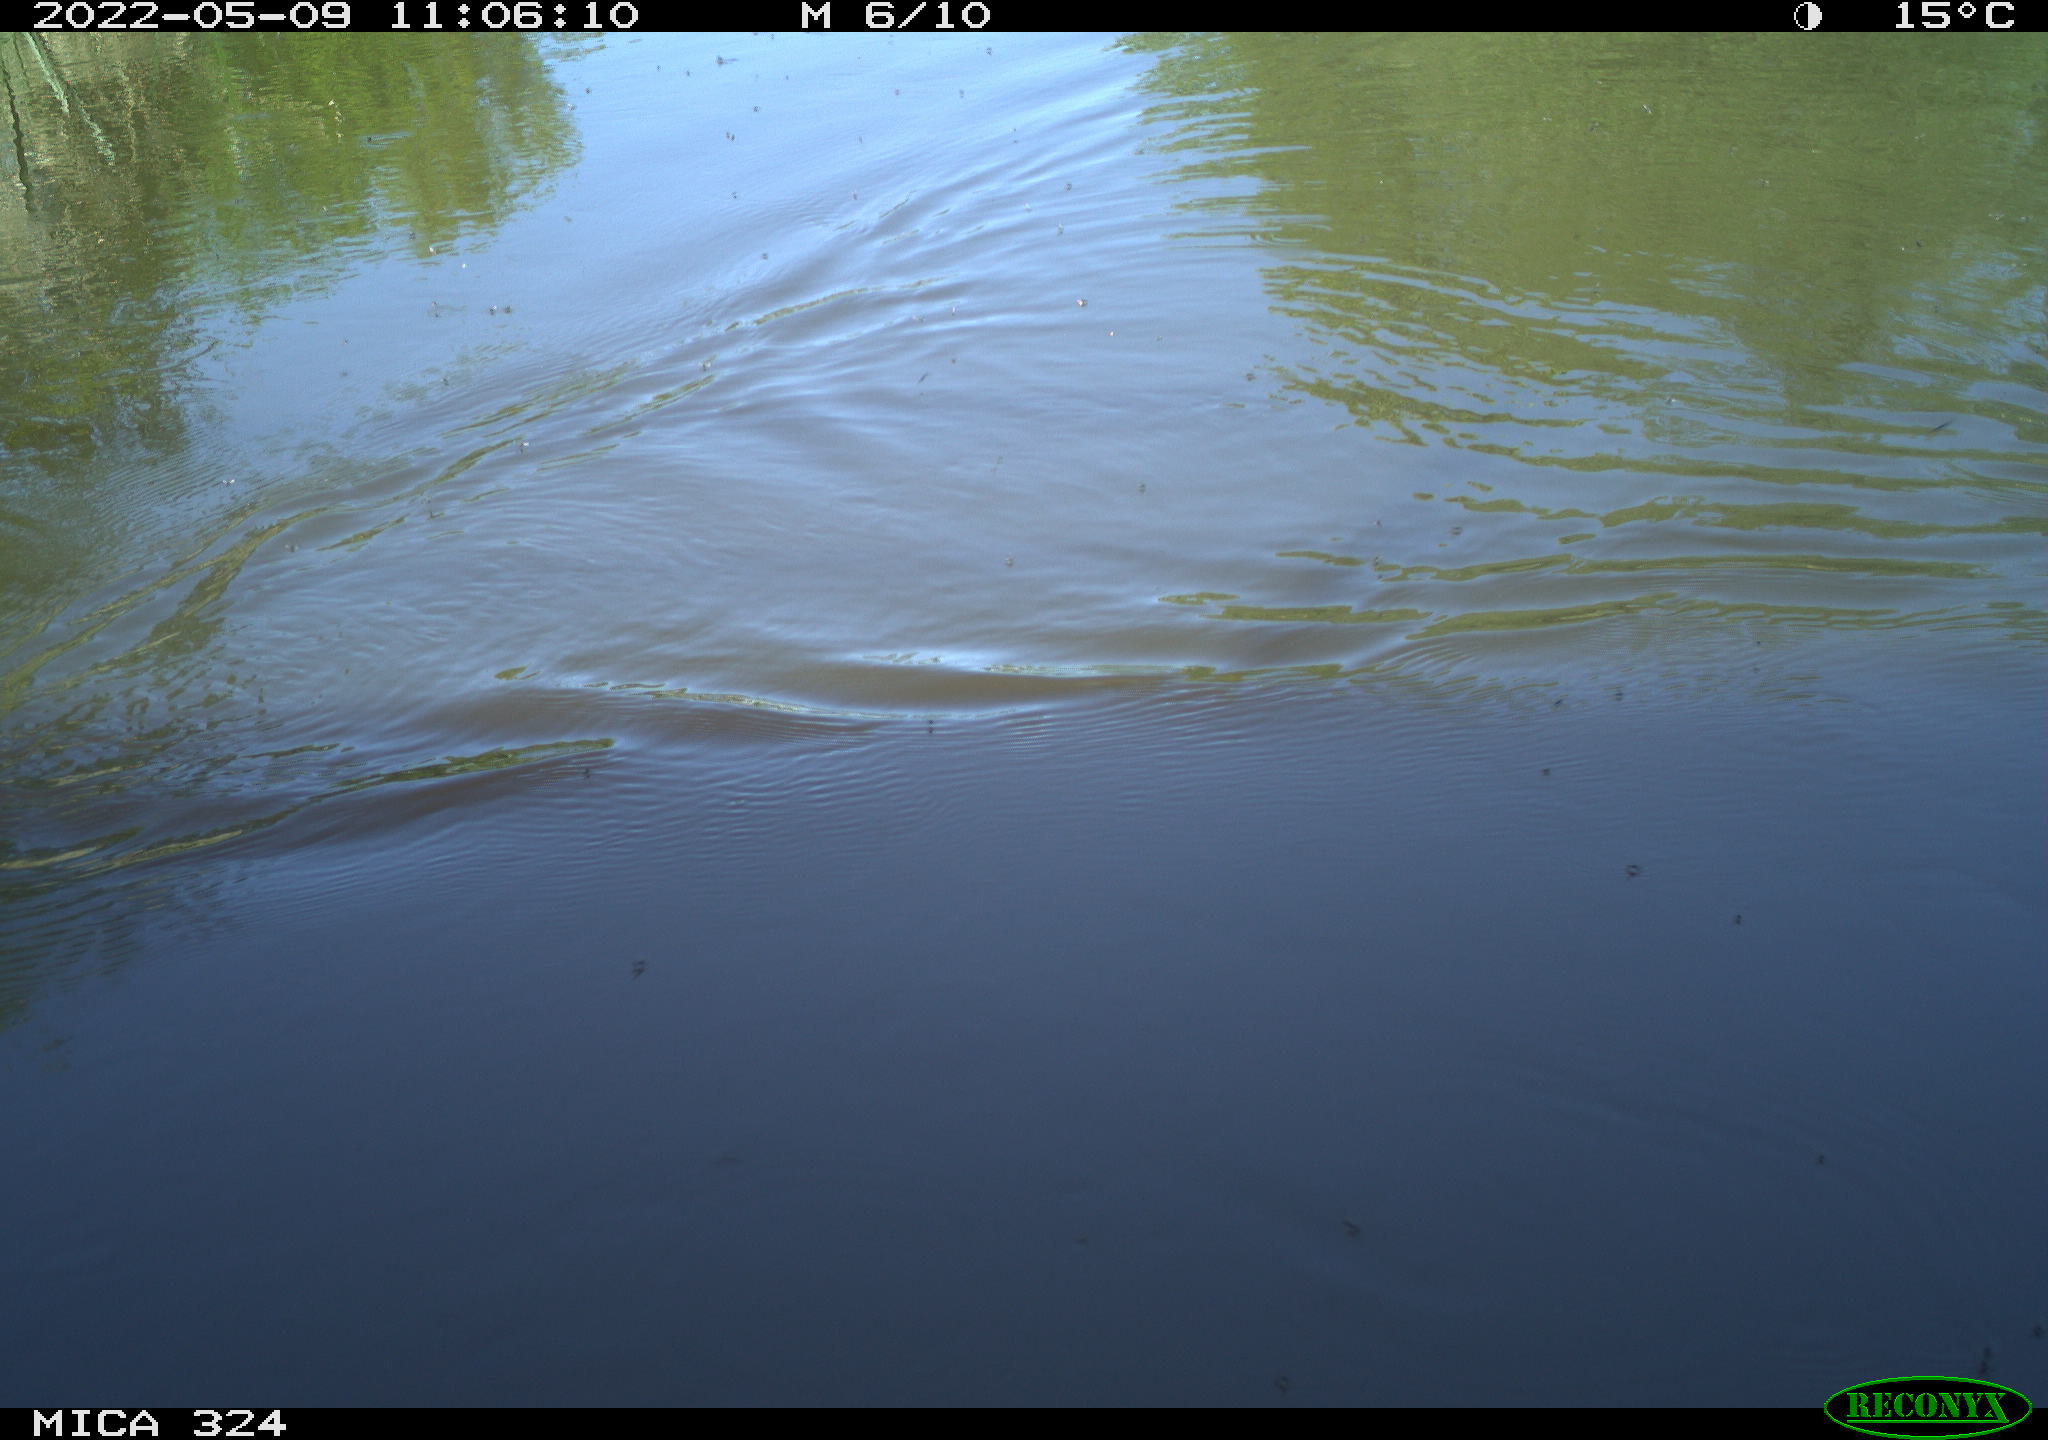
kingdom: Animalia
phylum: Chordata
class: Aves
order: Gruiformes
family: Rallidae
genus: Gallinula
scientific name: Gallinula chloropus
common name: Common moorhen
